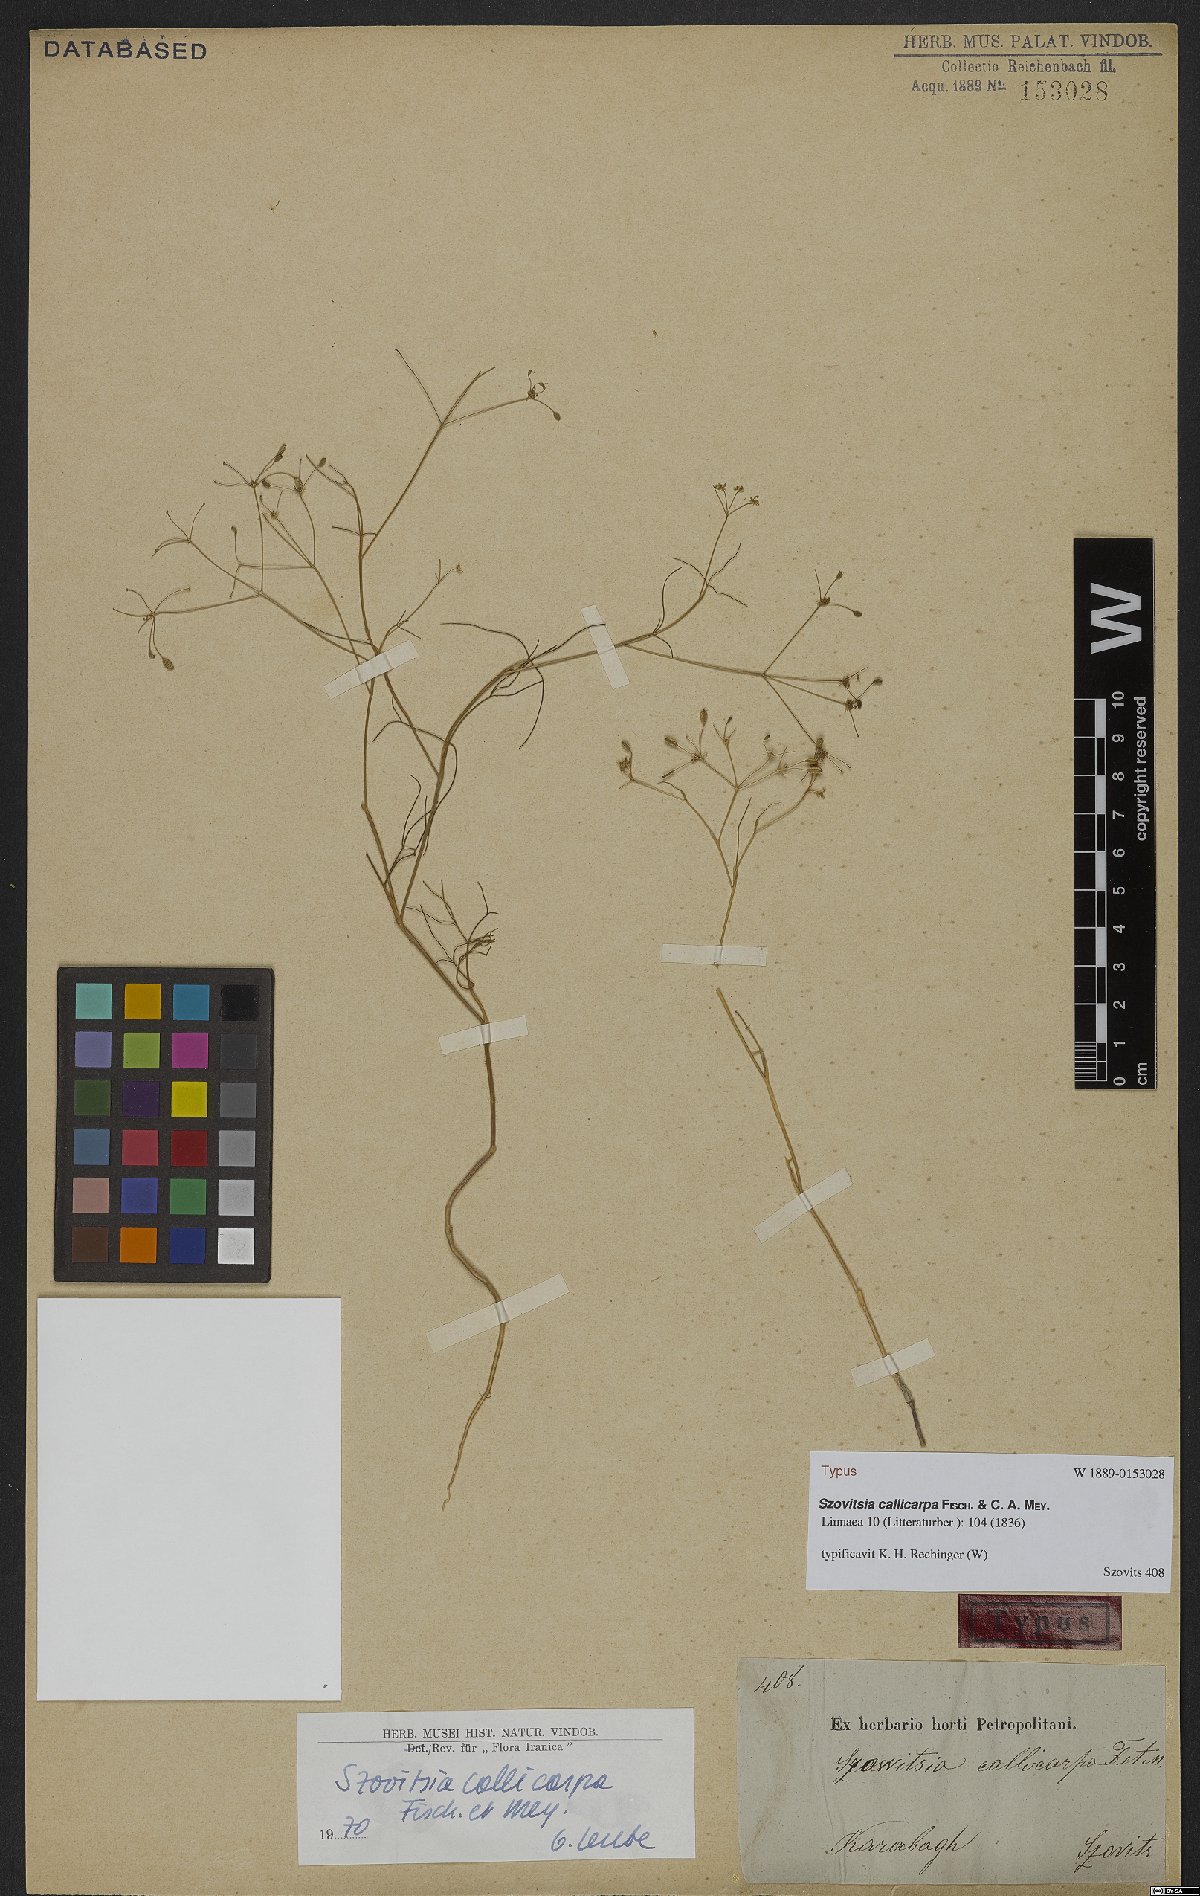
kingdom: Plantae
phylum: Tracheophyta
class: Magnoliopsida
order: Apiales
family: Apiaceae
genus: Szovitsia
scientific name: Szovitsia callicarpa
